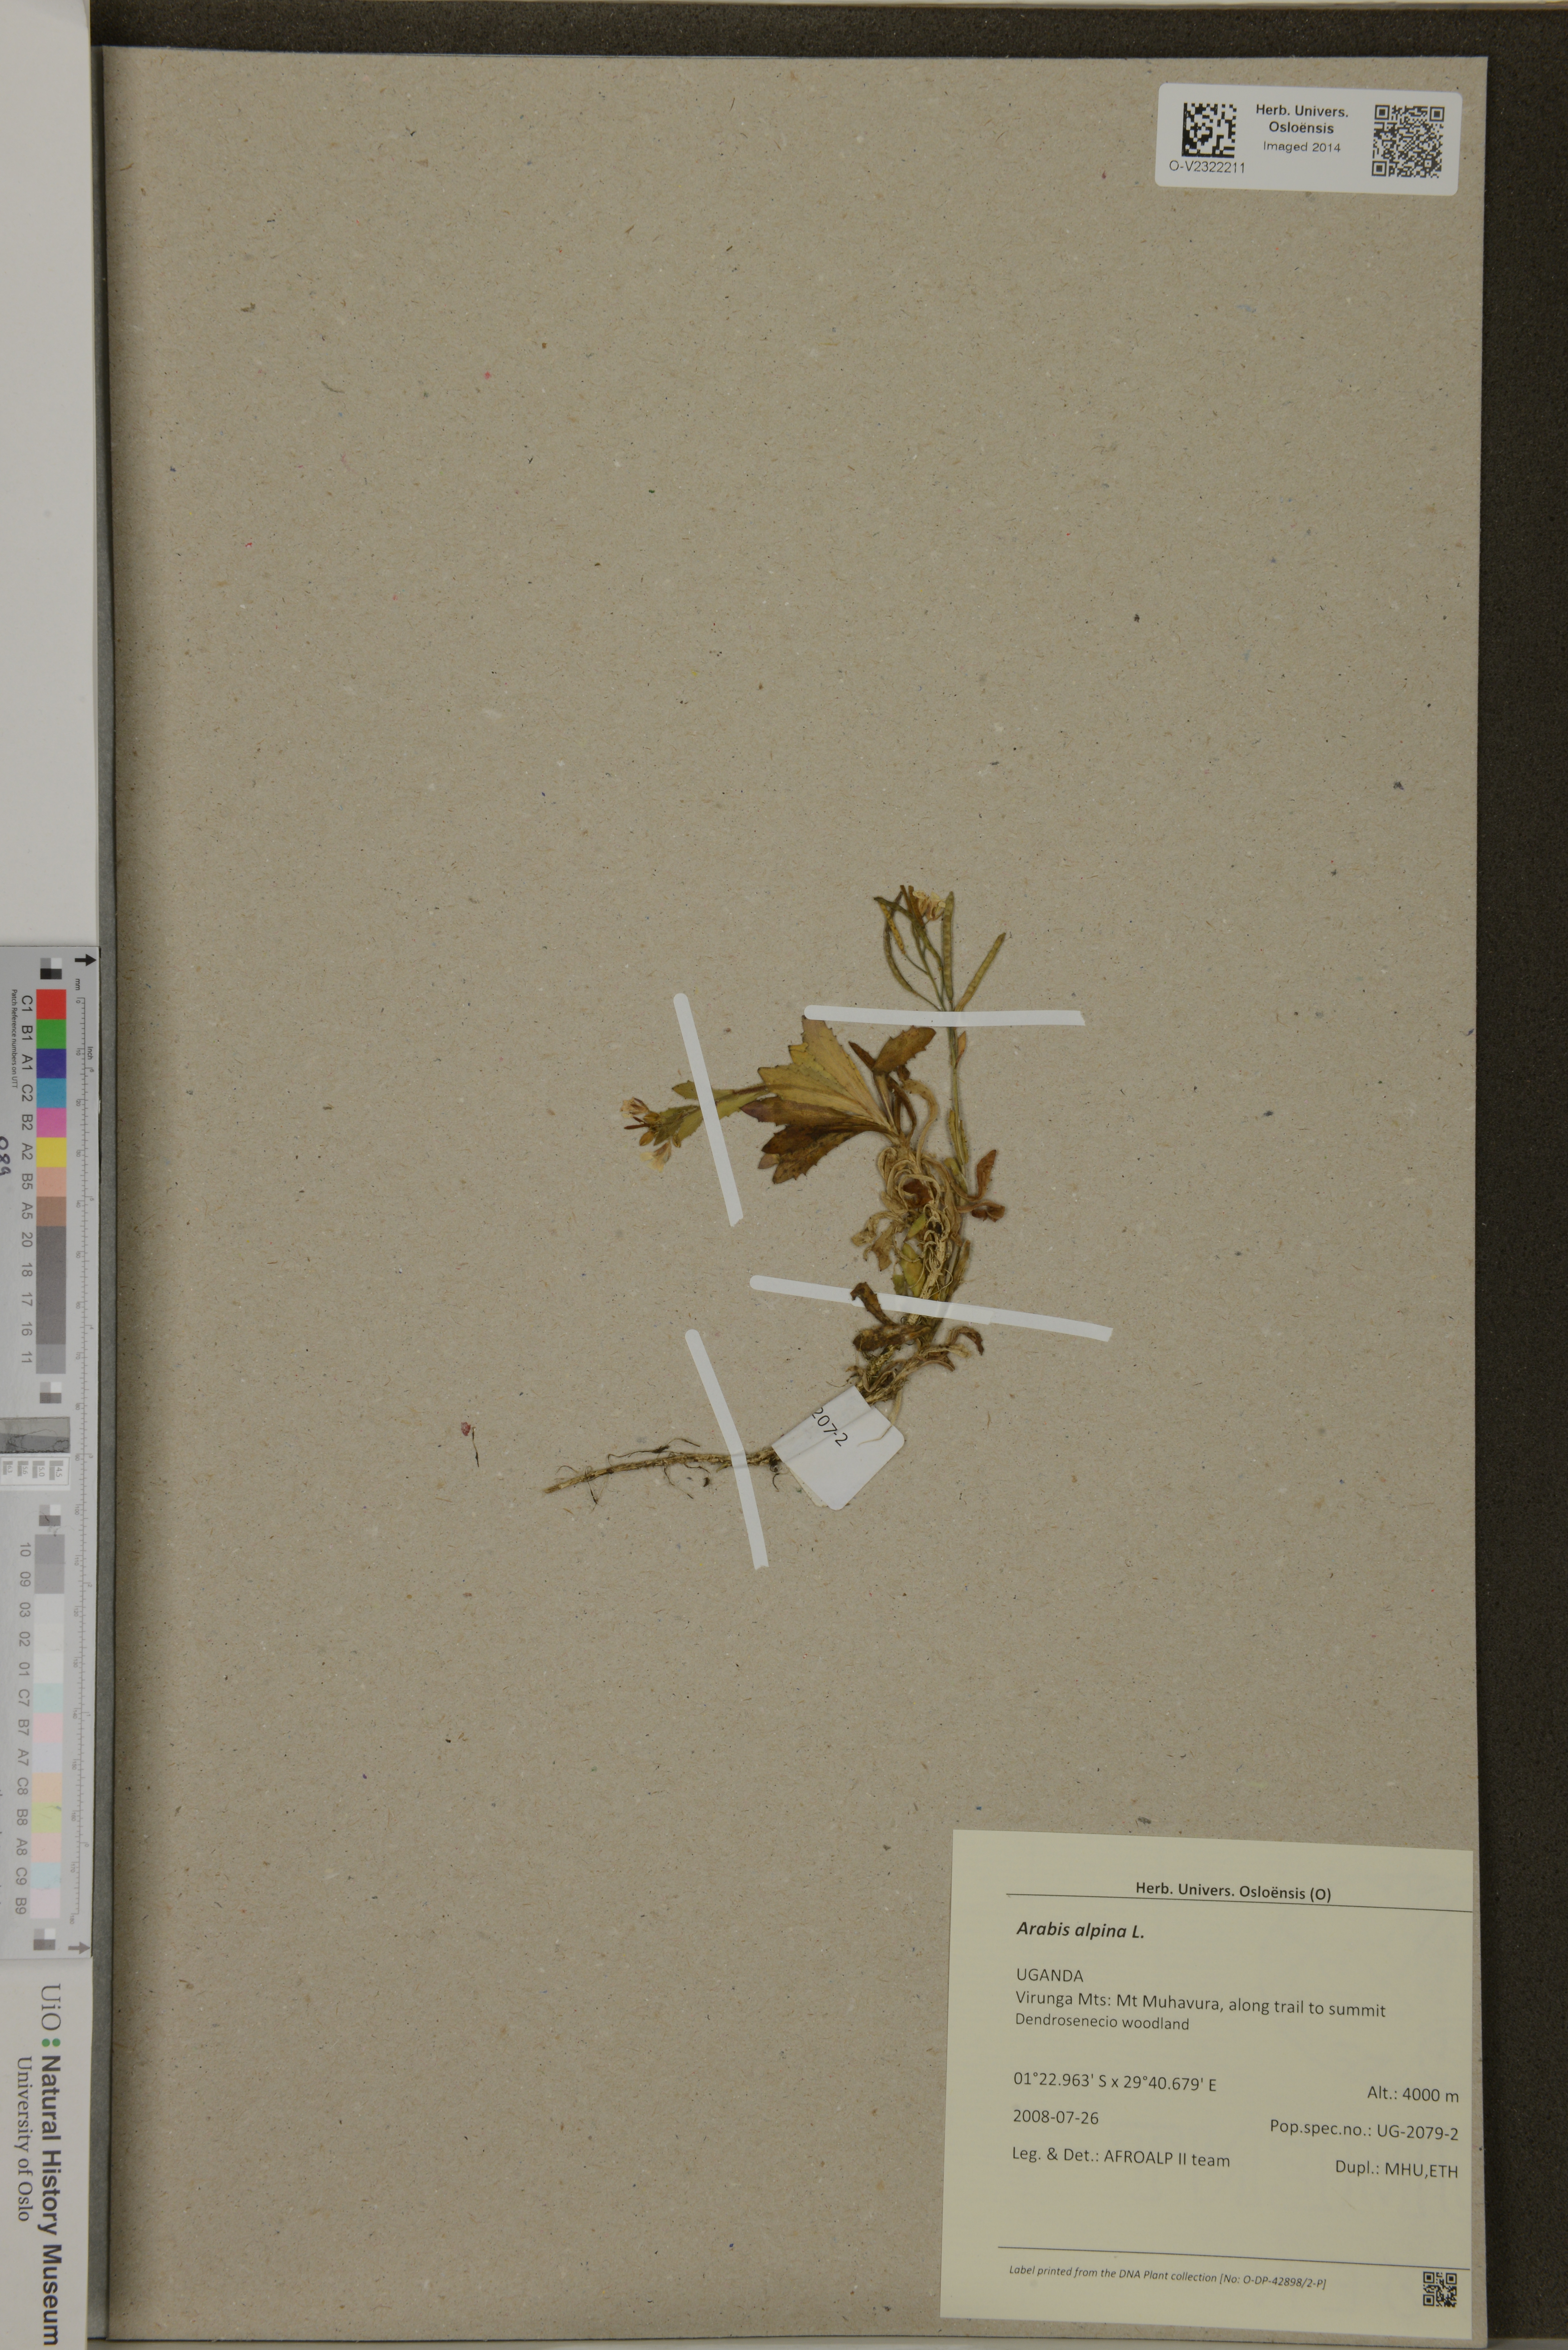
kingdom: Plantae
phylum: Tracheophyta
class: Magnoliopsida
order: Brassicales
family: Brassicaceae
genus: Arabis
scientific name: Arabis alpina
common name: Alpine rock-cress
